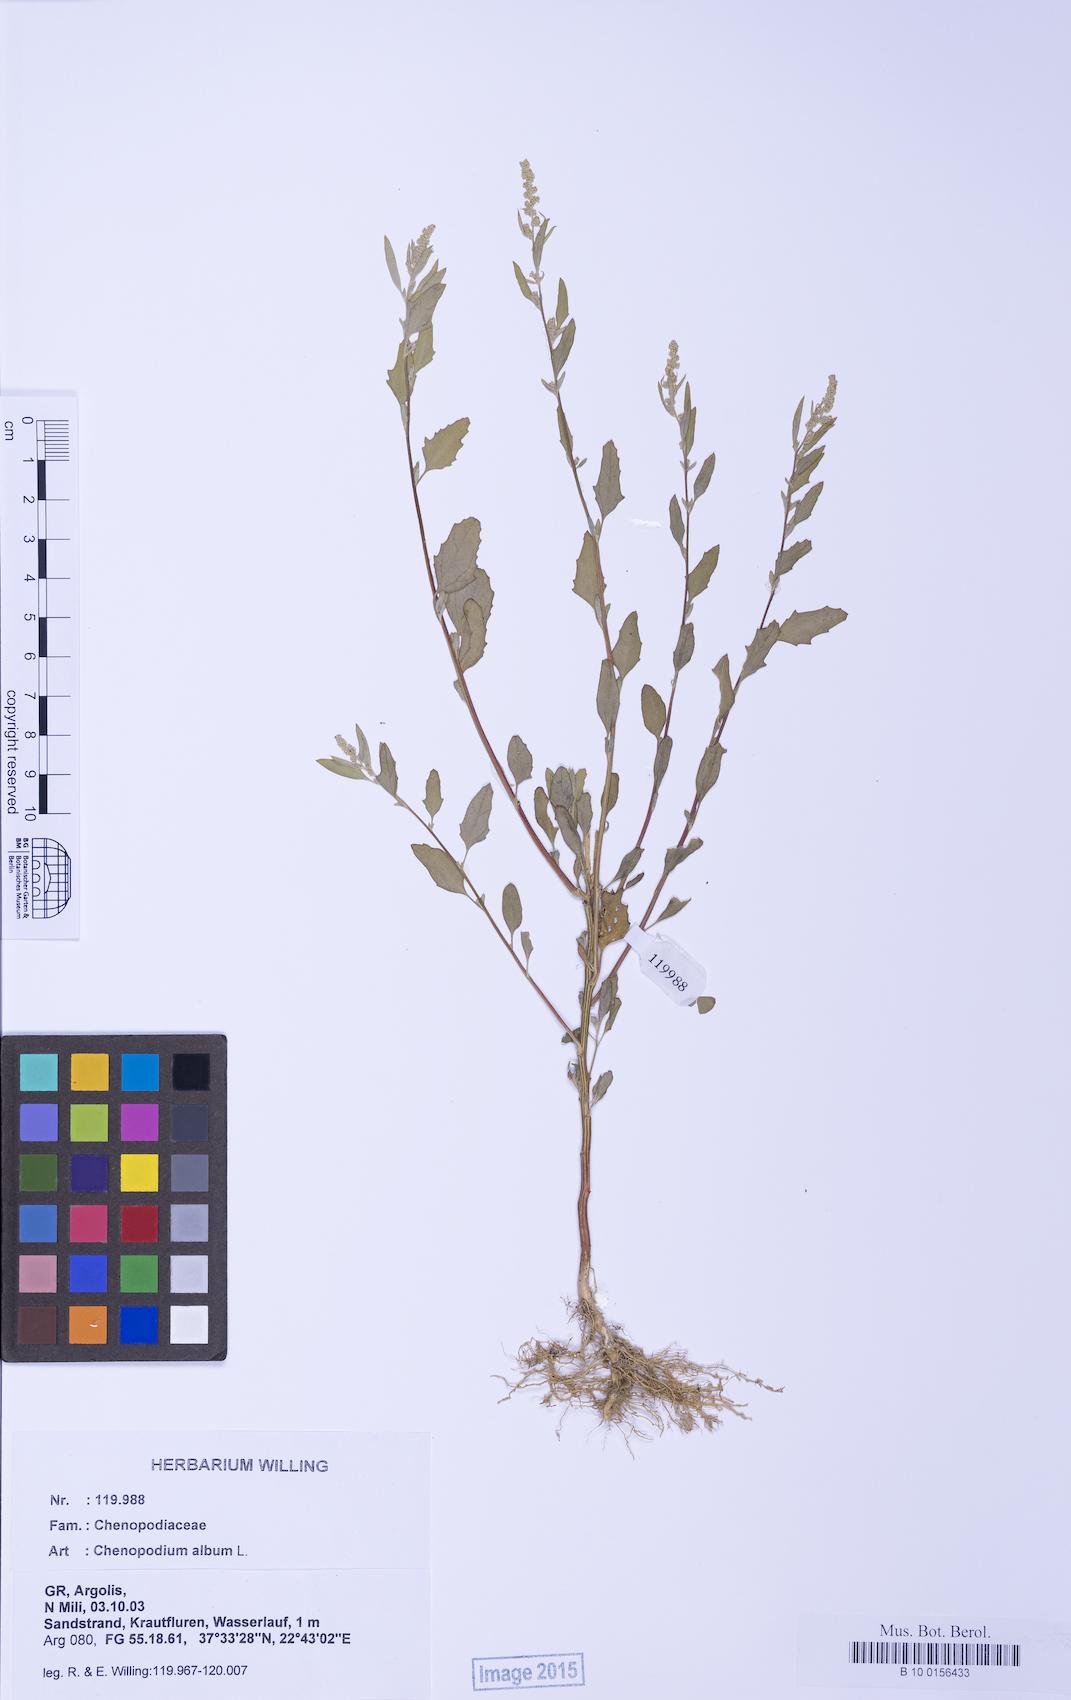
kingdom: Plantae
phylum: Tracheophyta
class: Magnoliopsida
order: Caryophyllales
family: Amaranthaceae
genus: Chenopodium
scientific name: Chenopodium album
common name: Fat-hen
